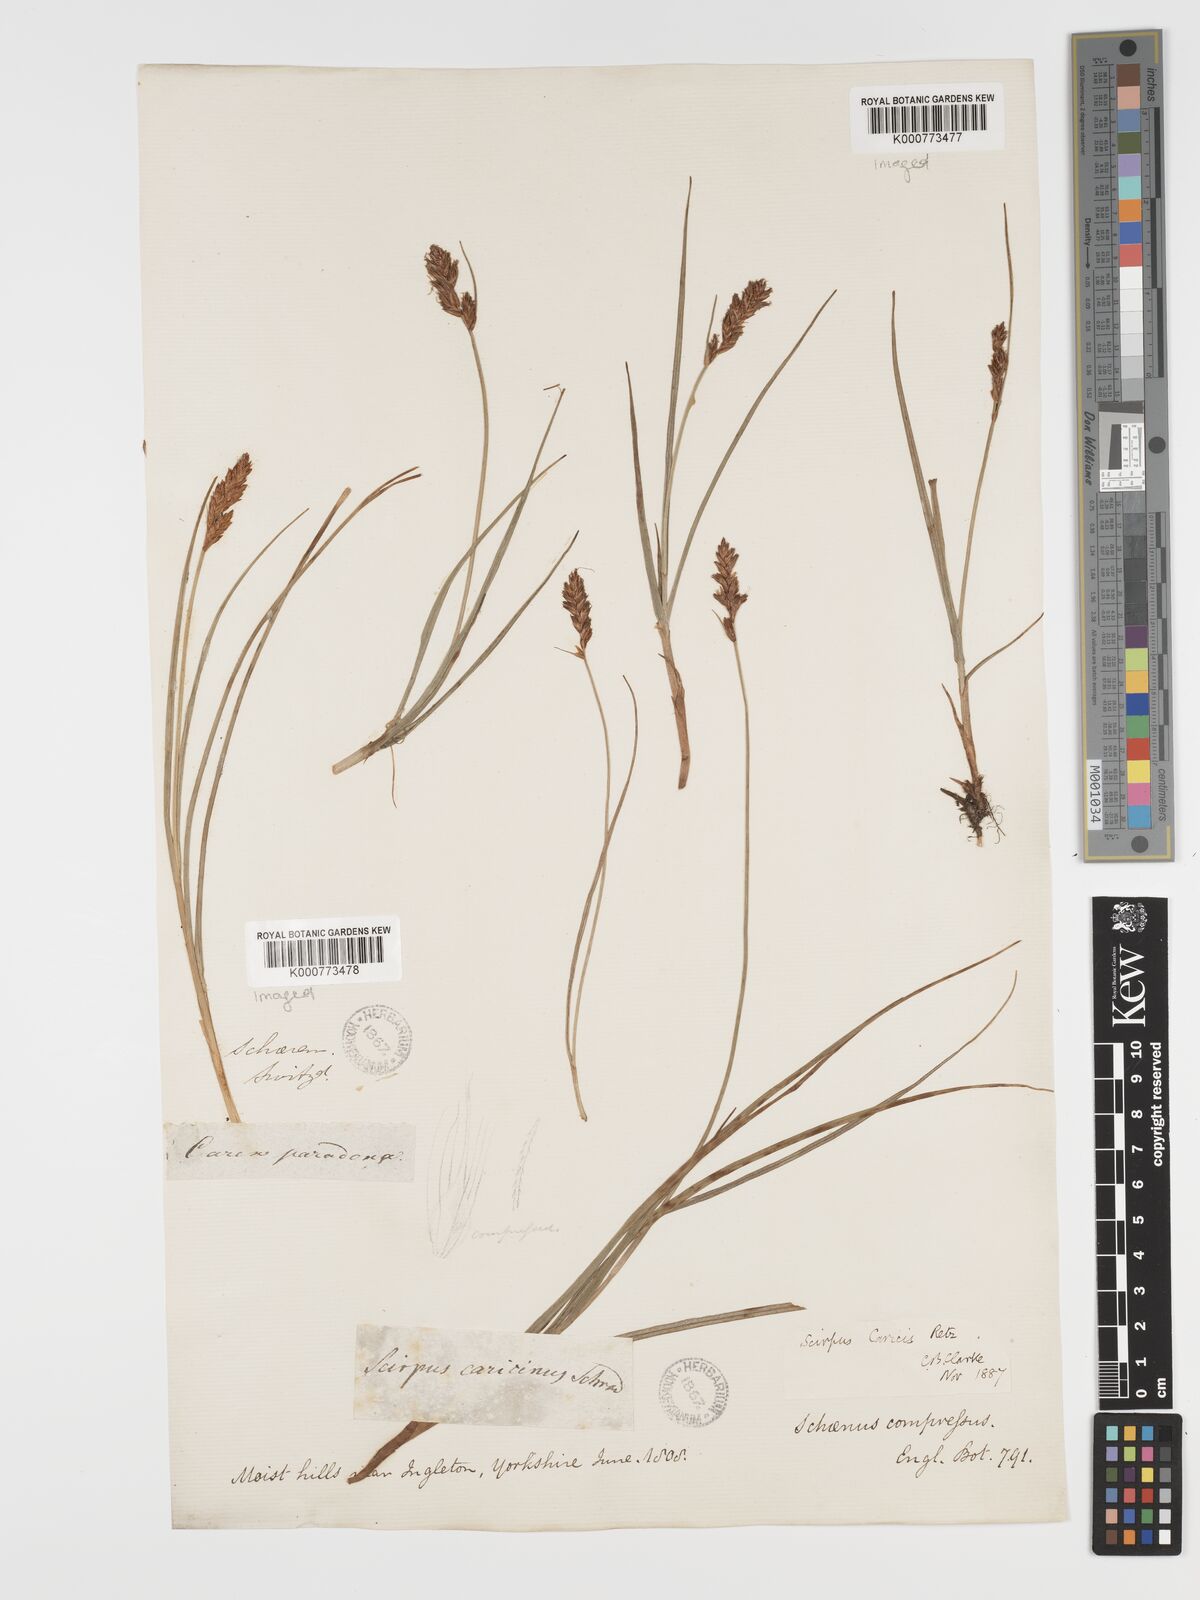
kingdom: Plantae
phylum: Tracheophyta
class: Liliopsida
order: Poales
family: Cyperaceae
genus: Blysmus
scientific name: Blysmus compressus
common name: Flat-sedge
